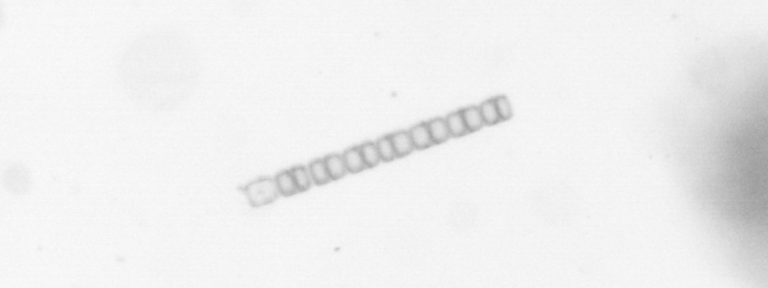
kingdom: Chromista
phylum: Ochrophyta
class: Bacillariophyceae
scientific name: Bacillariophyceae
